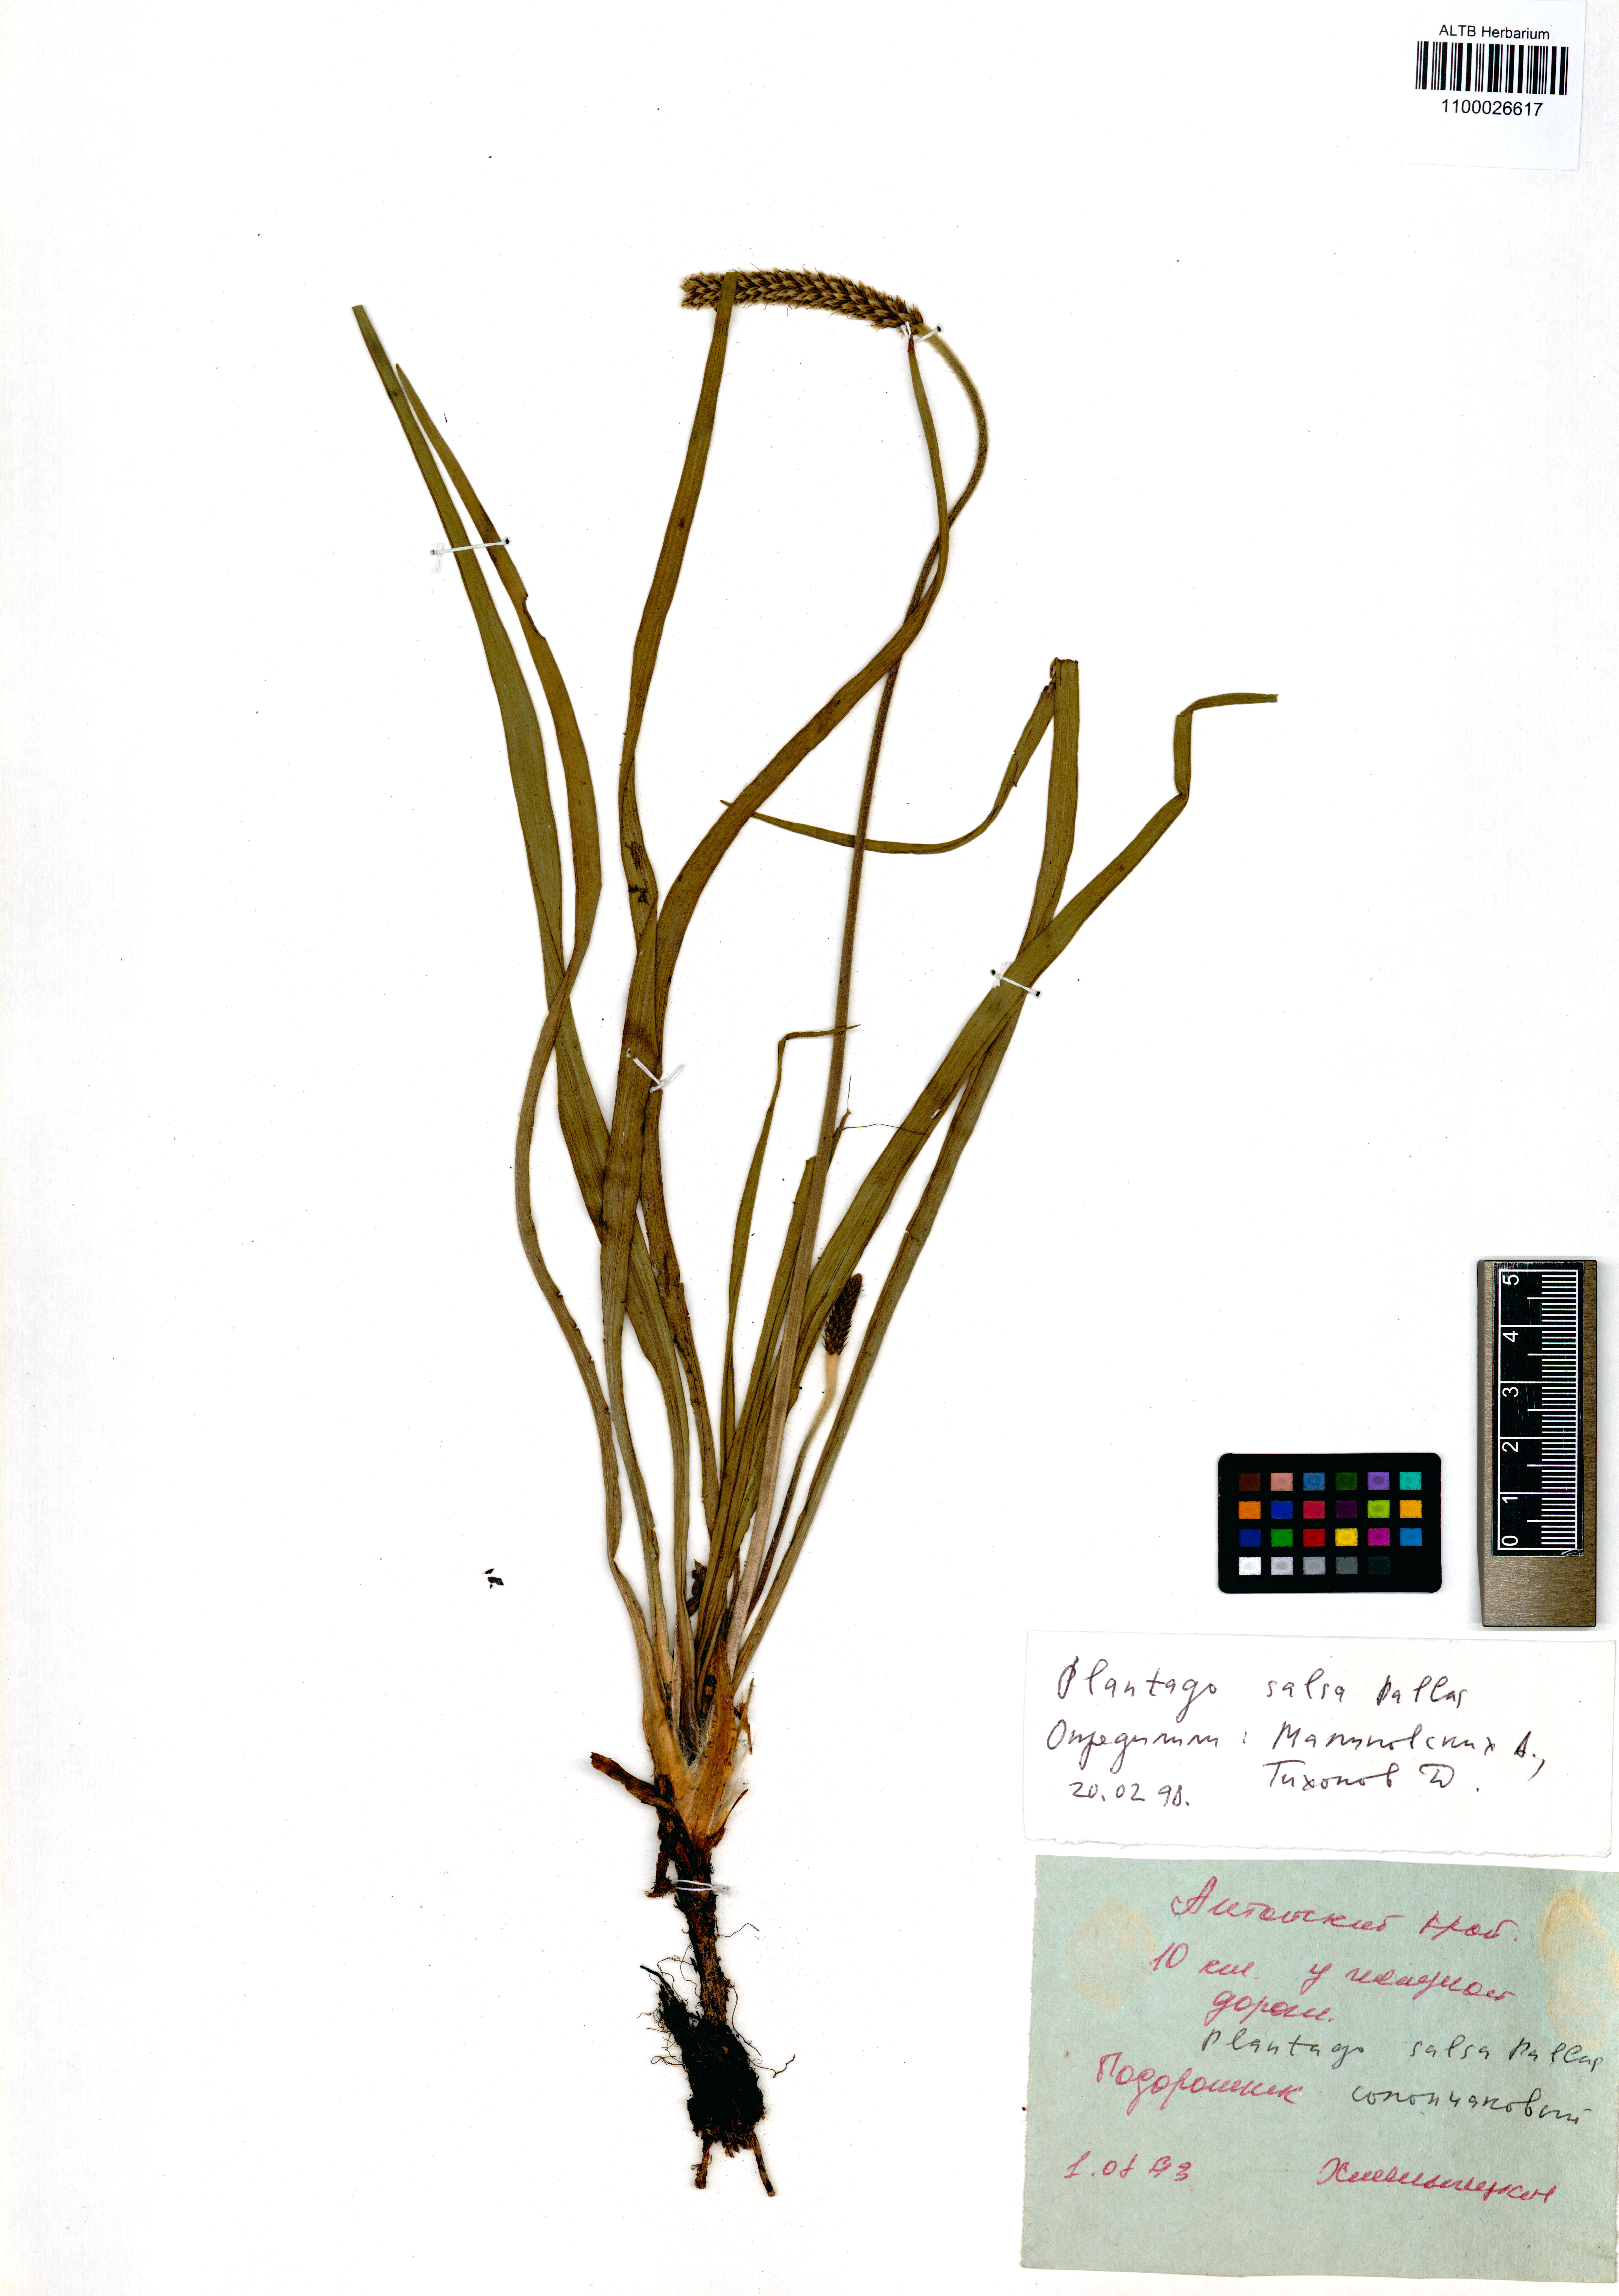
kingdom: Plantae
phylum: Tracheophyta
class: Magnoliopsida
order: Lamiales
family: Plantaginaceae
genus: Plantago
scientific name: Plantago salsa
